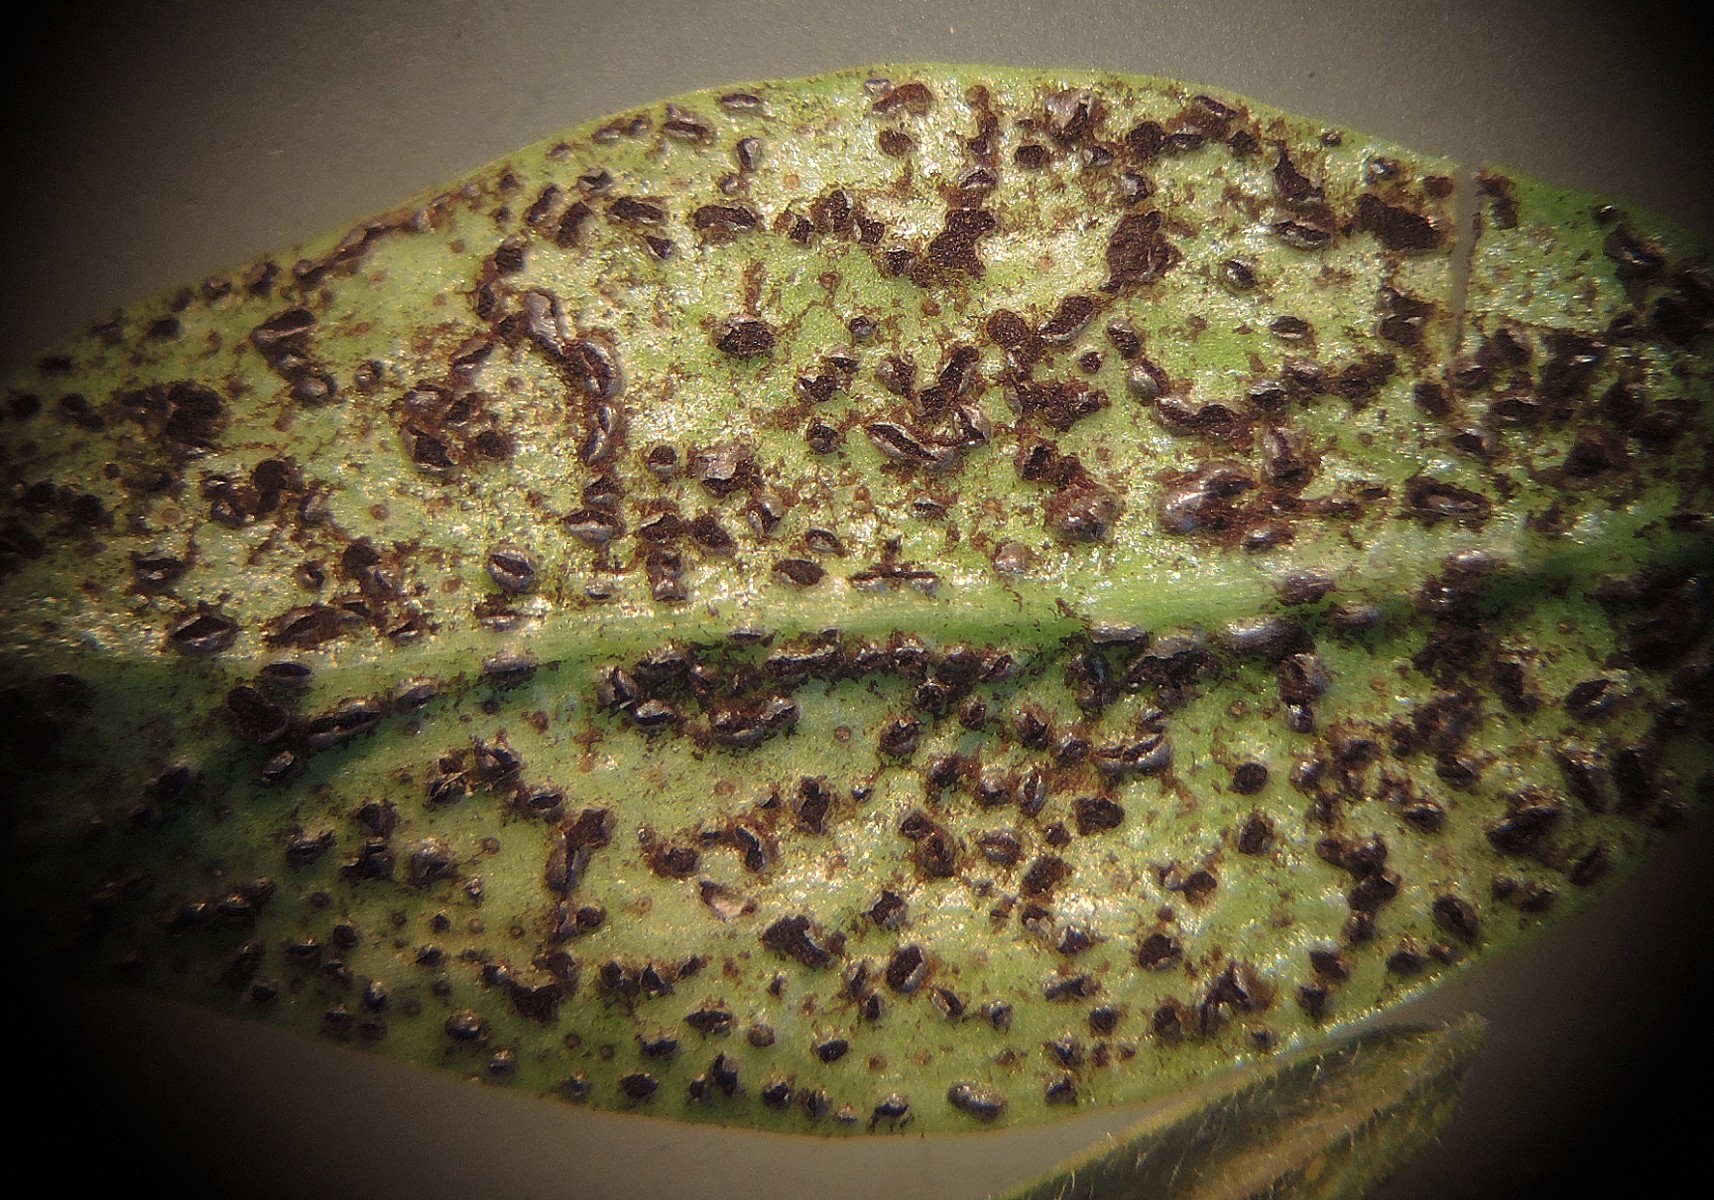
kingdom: Fungi
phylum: Basidiomycota
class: Pucciniomycetes
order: Pucciniales
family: Pucciniaceae
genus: Puccinia
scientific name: Puccinia cribrata
